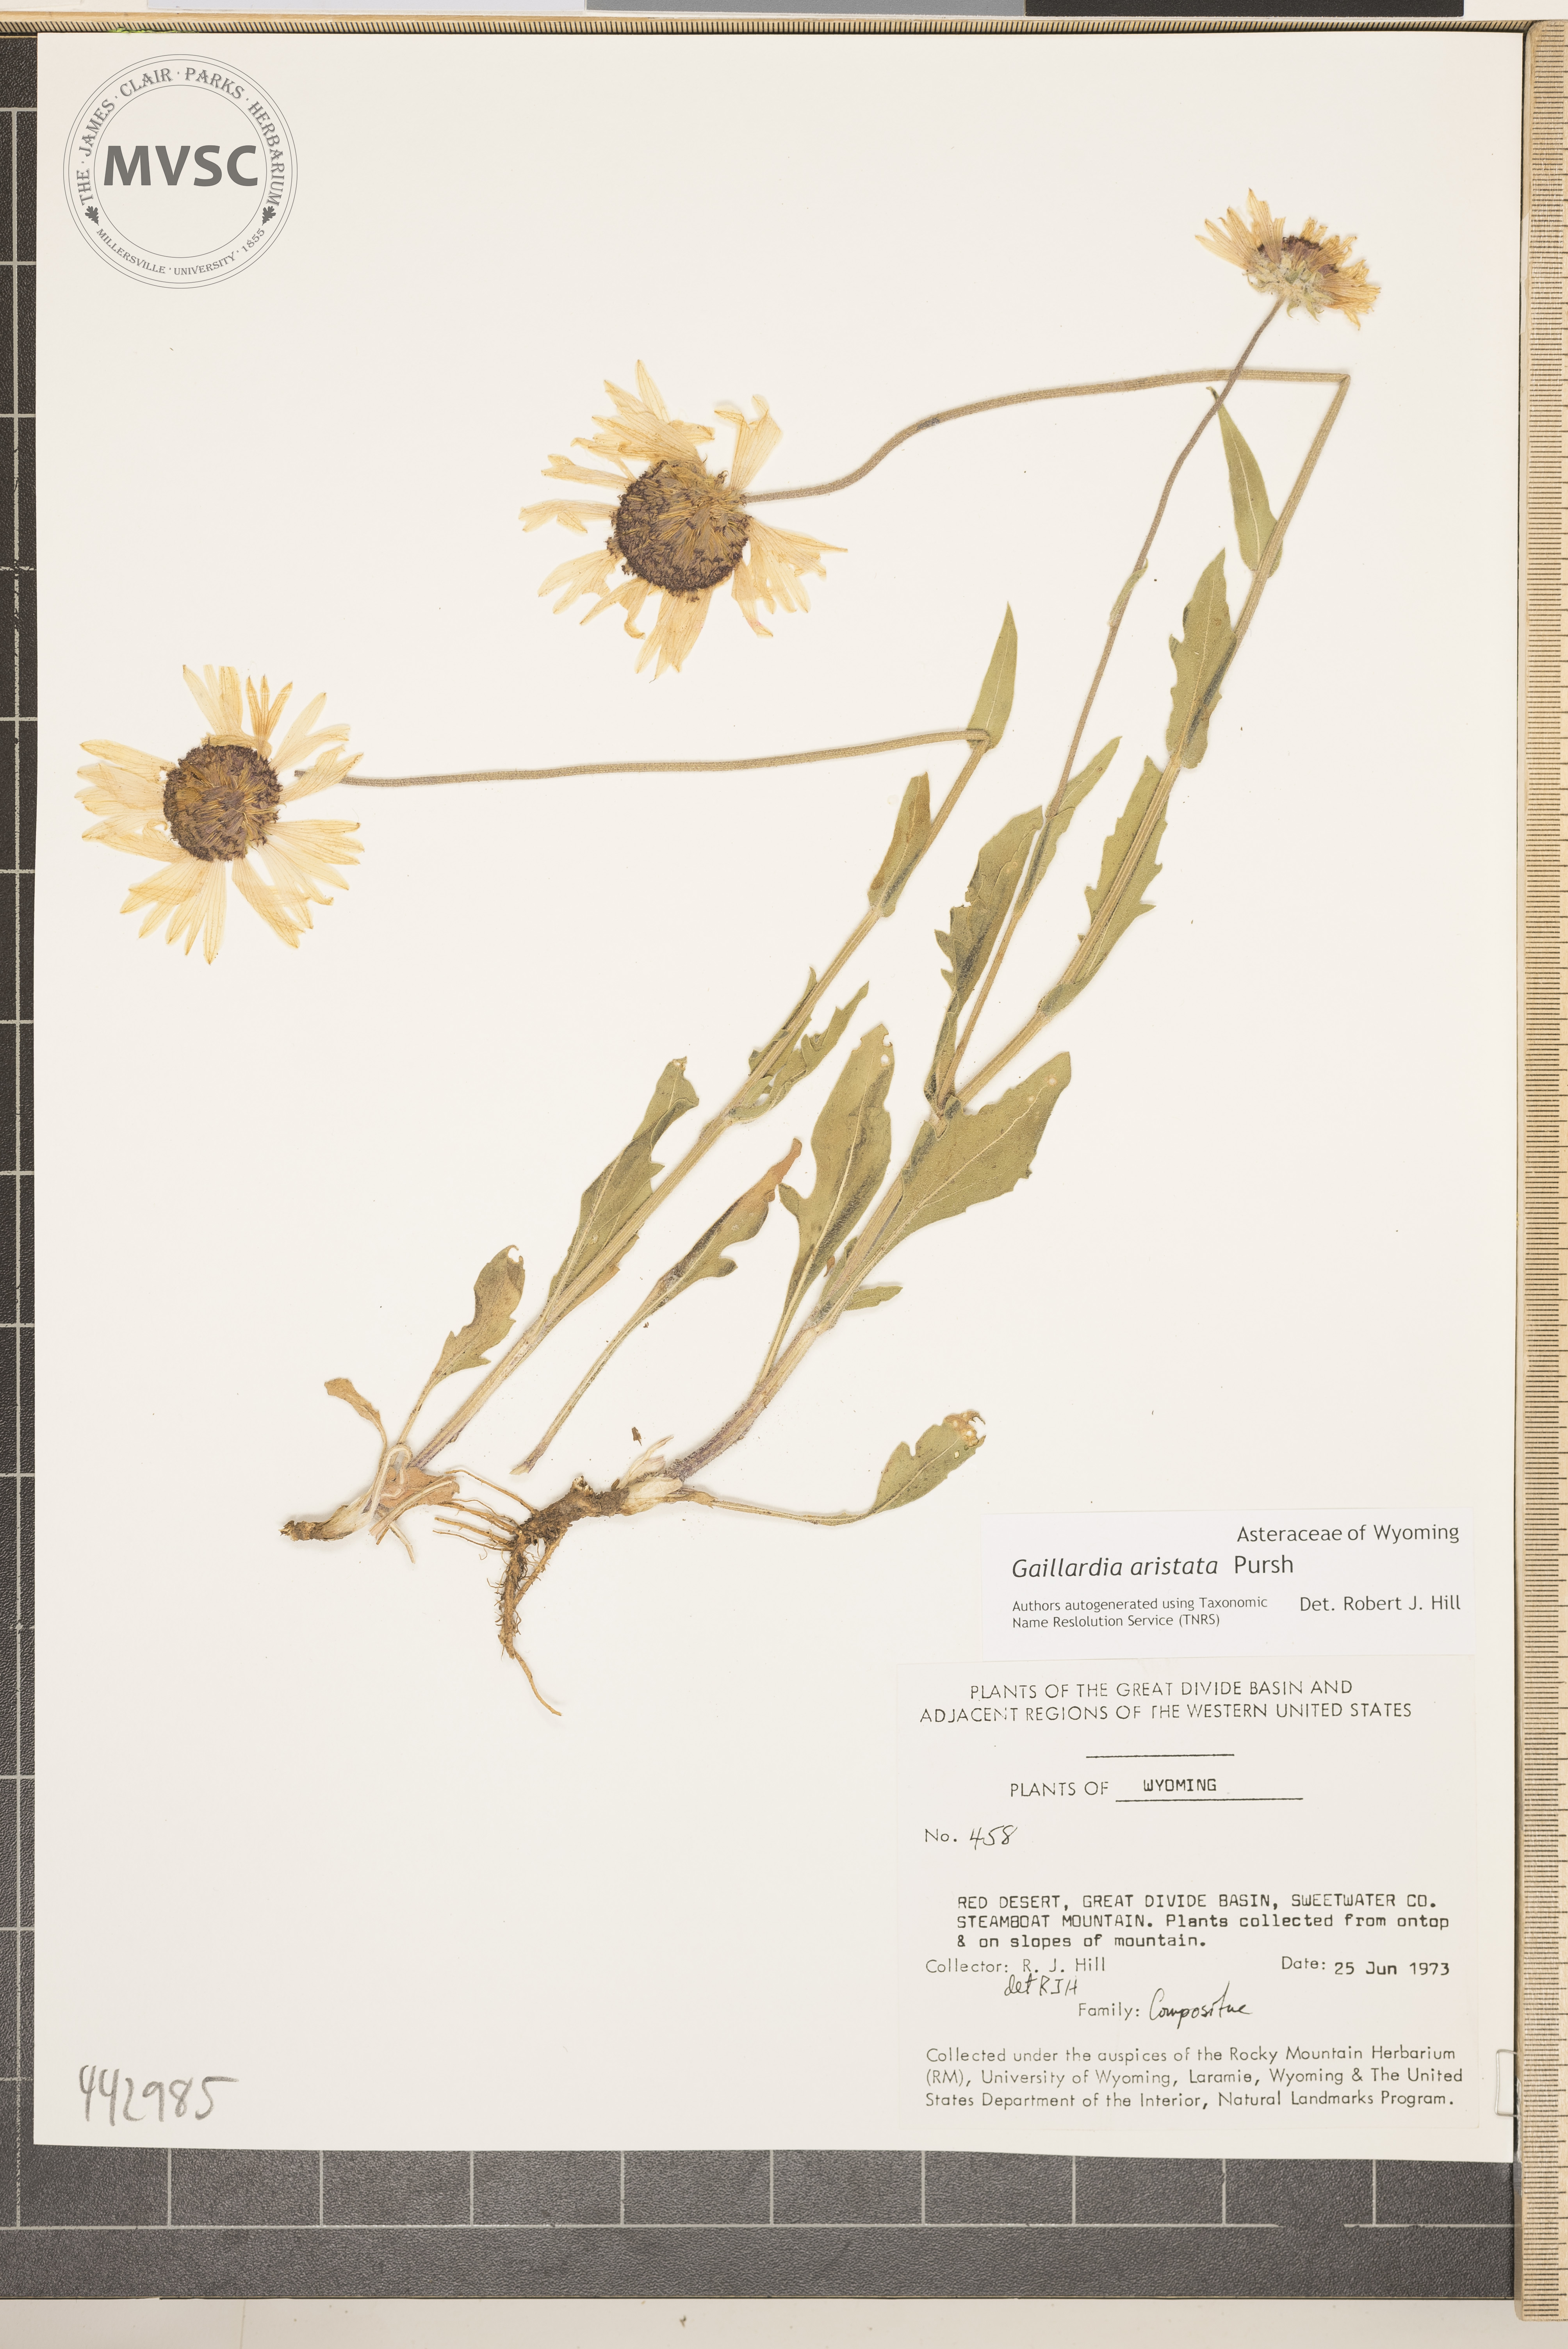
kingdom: Plantae
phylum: Tracheophyta
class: Magnoliopsida
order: Asterales
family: Asteraceae
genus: Gaillardia
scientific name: Gaillardia aristata
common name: Blanket-flower
